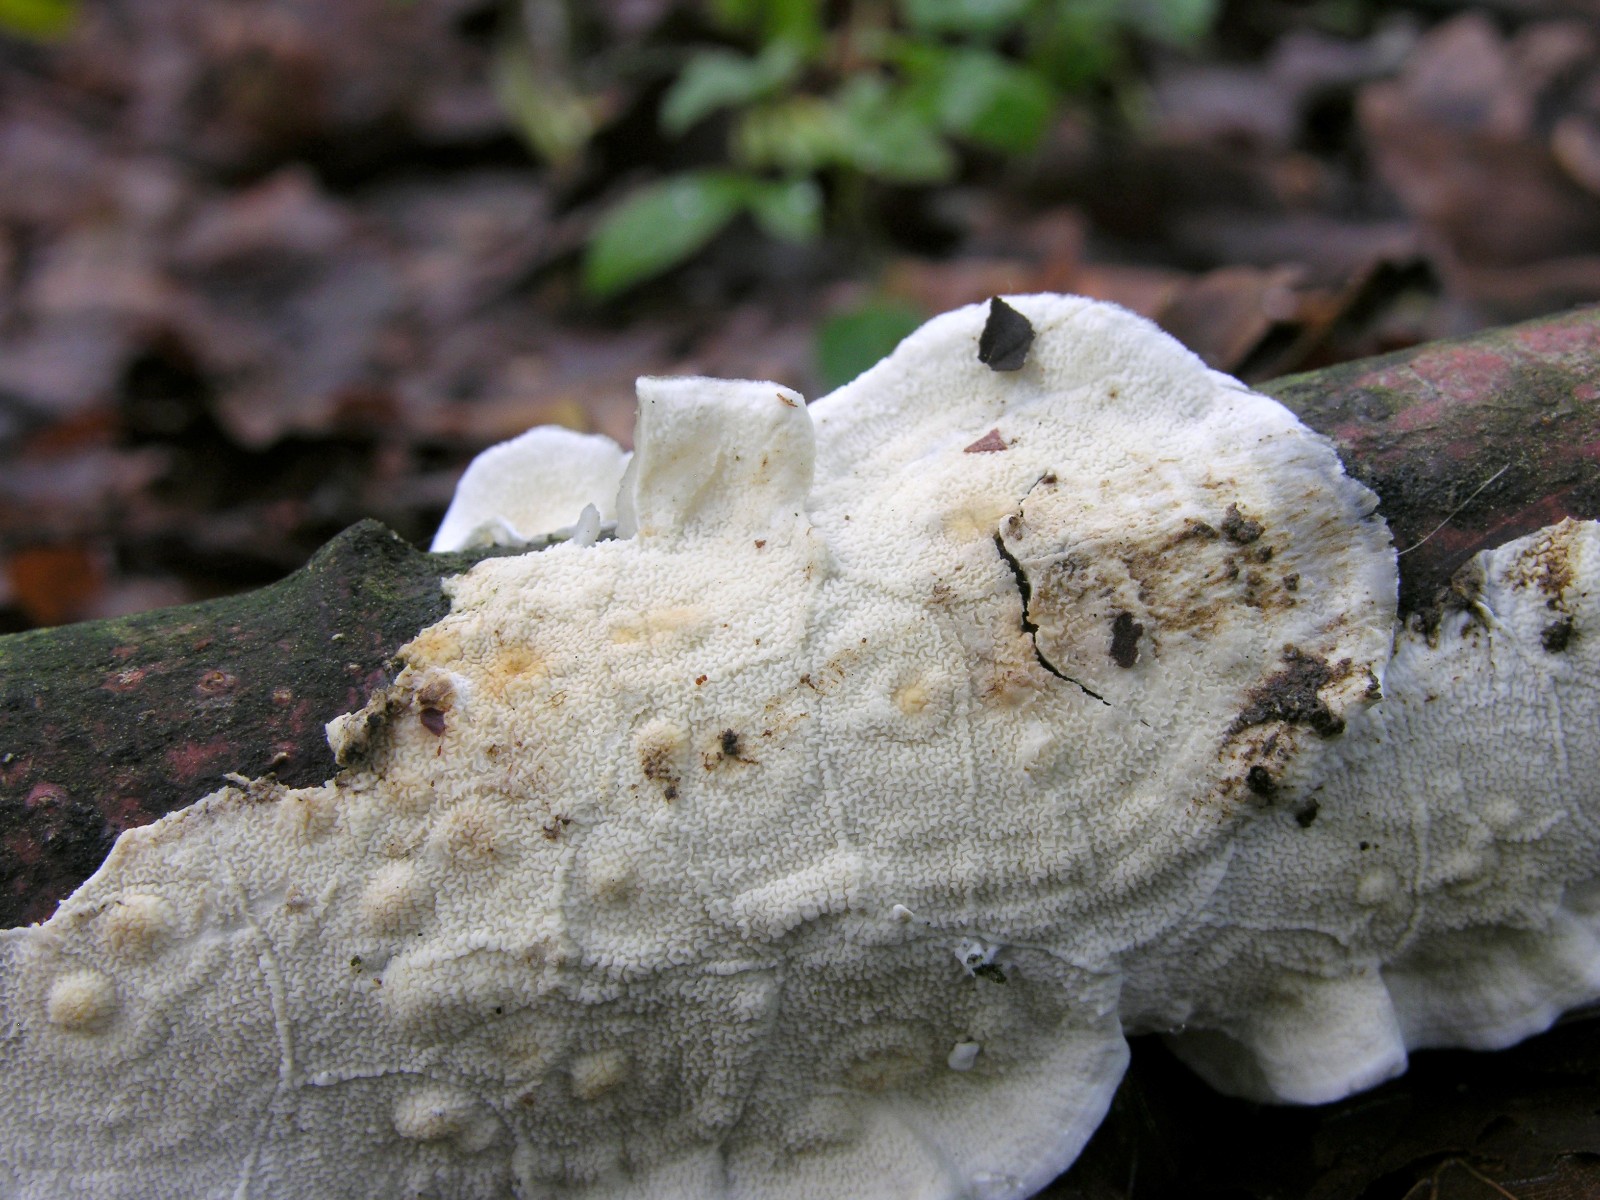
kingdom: Fungi
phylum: Basidiomycota
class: Agaricomycetes
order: Polyporales
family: Irpicaceae
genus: Byssomerulius
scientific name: Byssomerulius corium
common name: læder-åresvamp
